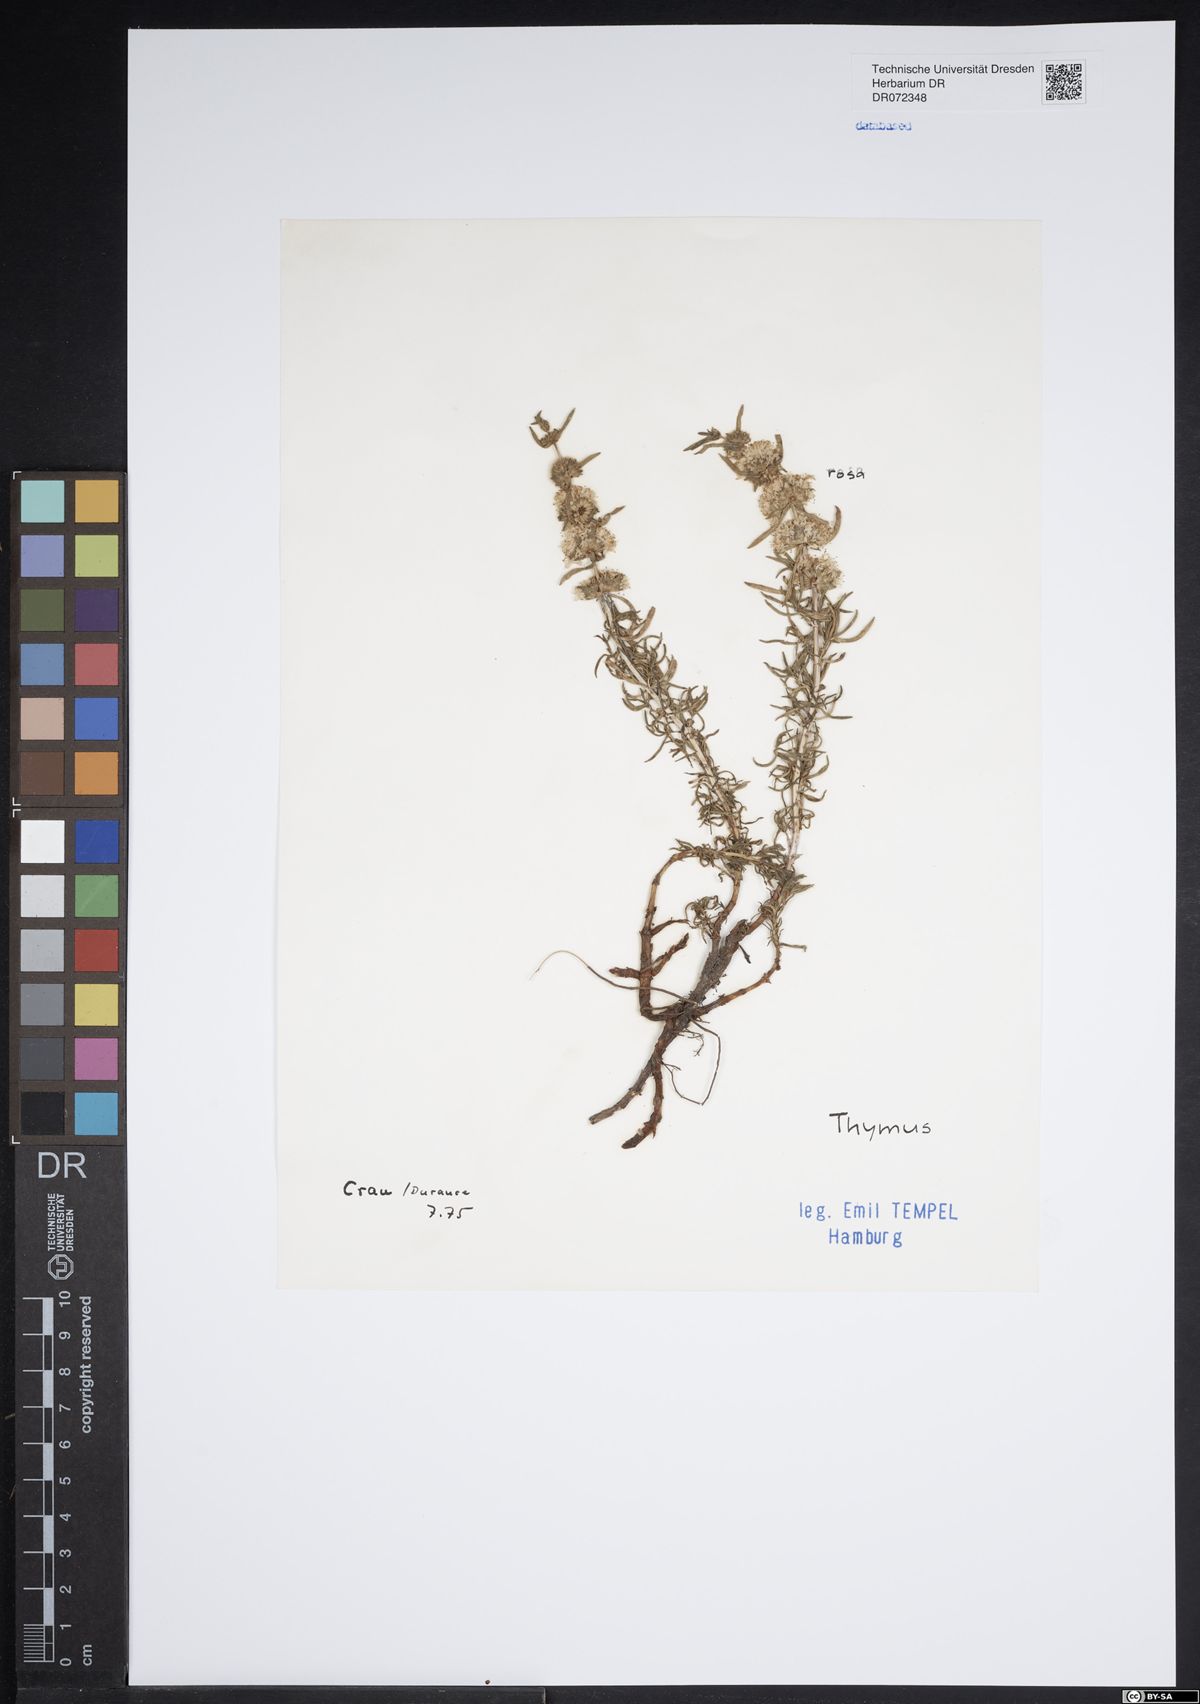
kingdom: Plantae
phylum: Tracheophyta
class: Magnoliopsida
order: Lamiales
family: Lamiaceae
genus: Thymus
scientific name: Thymus
